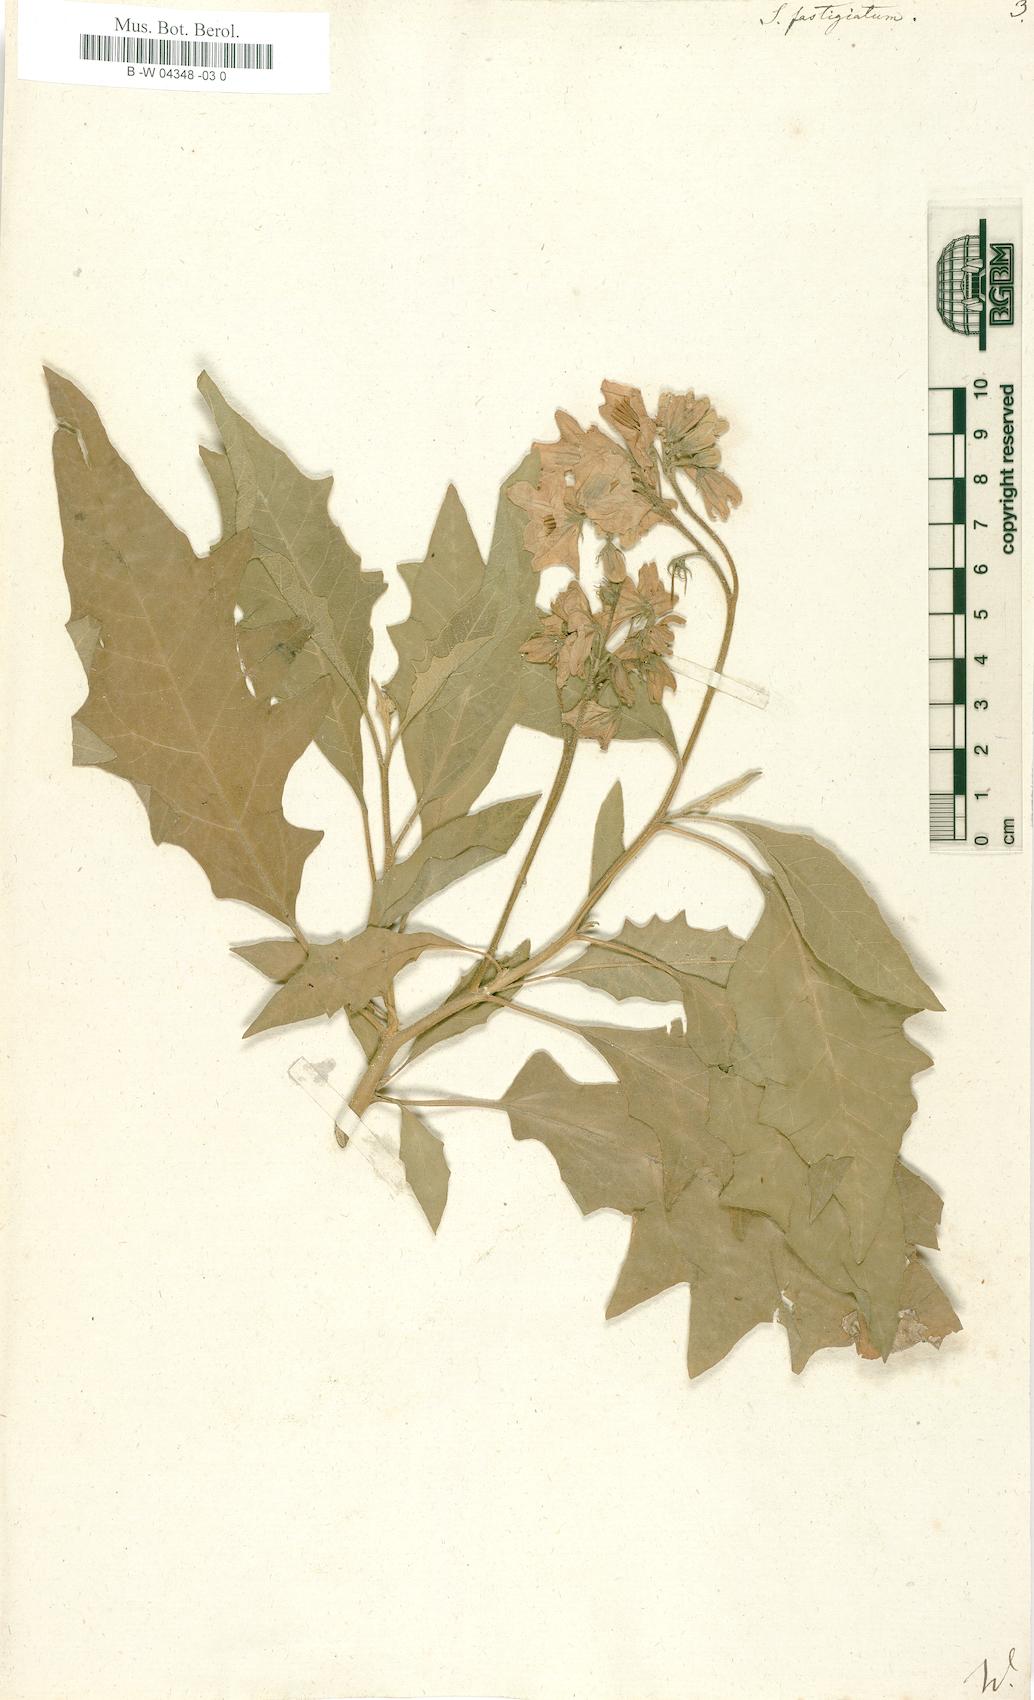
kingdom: Plantae
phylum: Tracheophyta
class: Magnoliopsida
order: Solanales
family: Solanaceae
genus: Solanum
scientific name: Solanum bonariense
